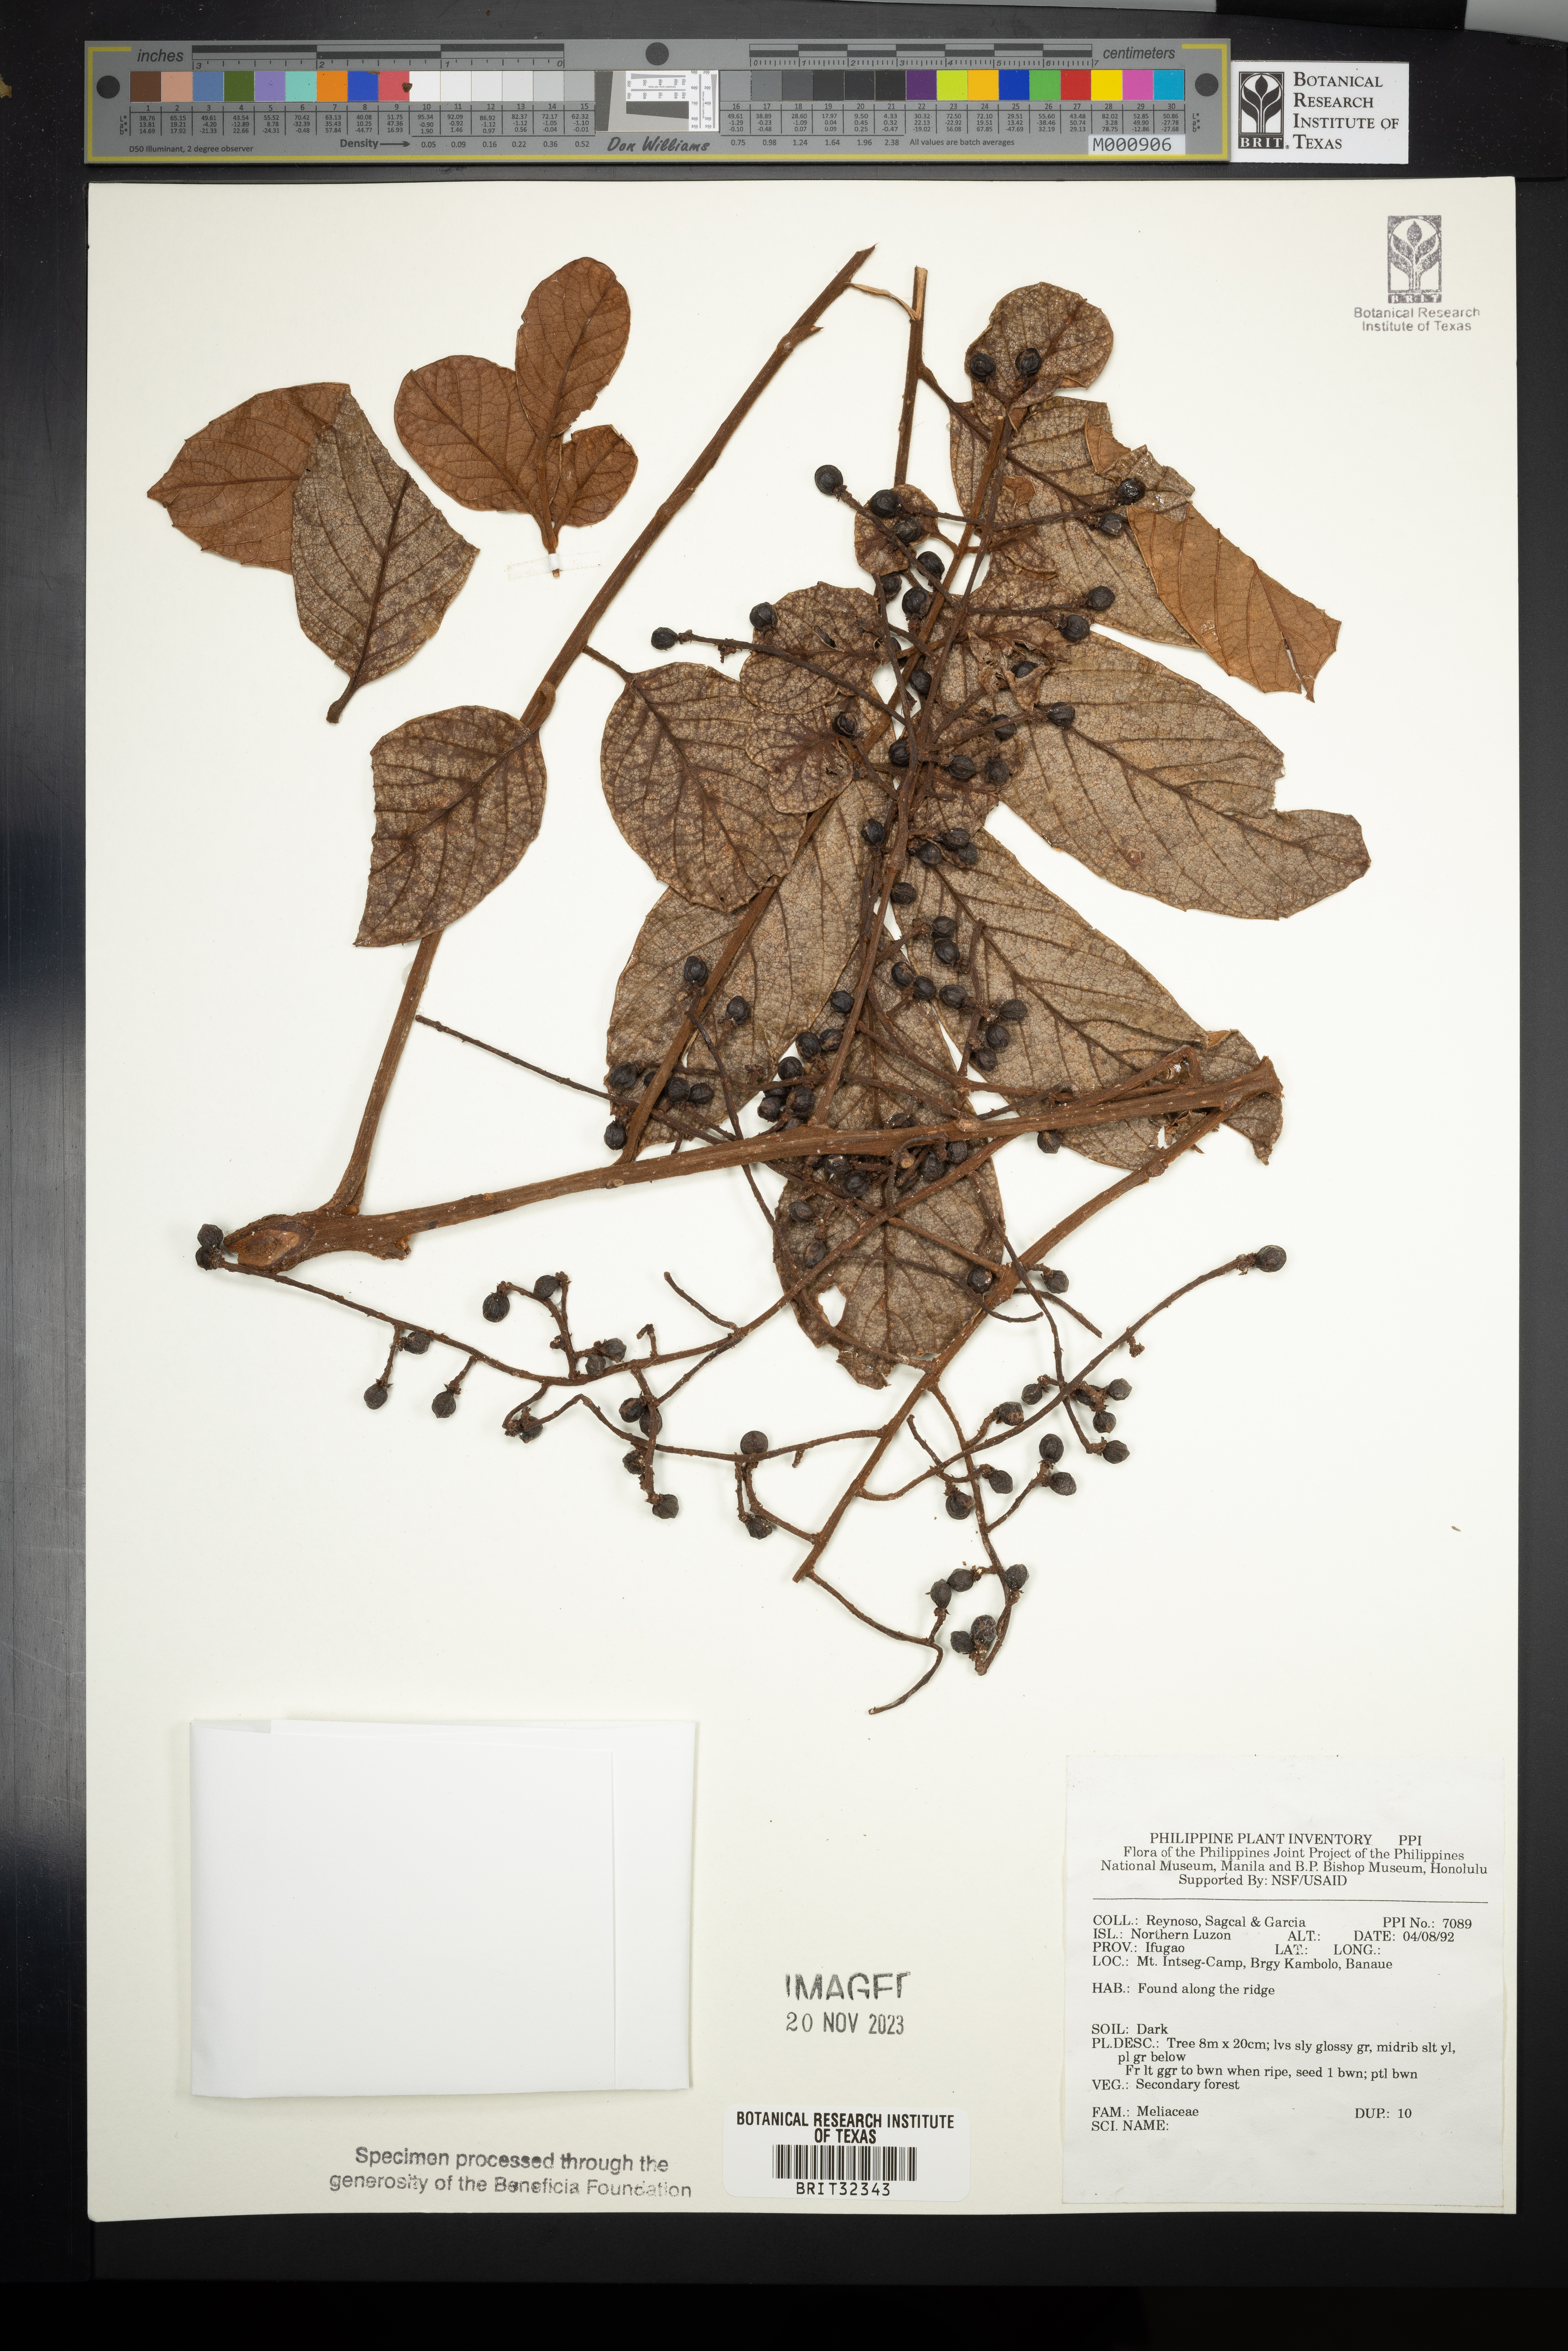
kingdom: Plantae
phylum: Tracheophyta
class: Magnoliopsida
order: Sapindales
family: Meliaceae
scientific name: Meliaceae
